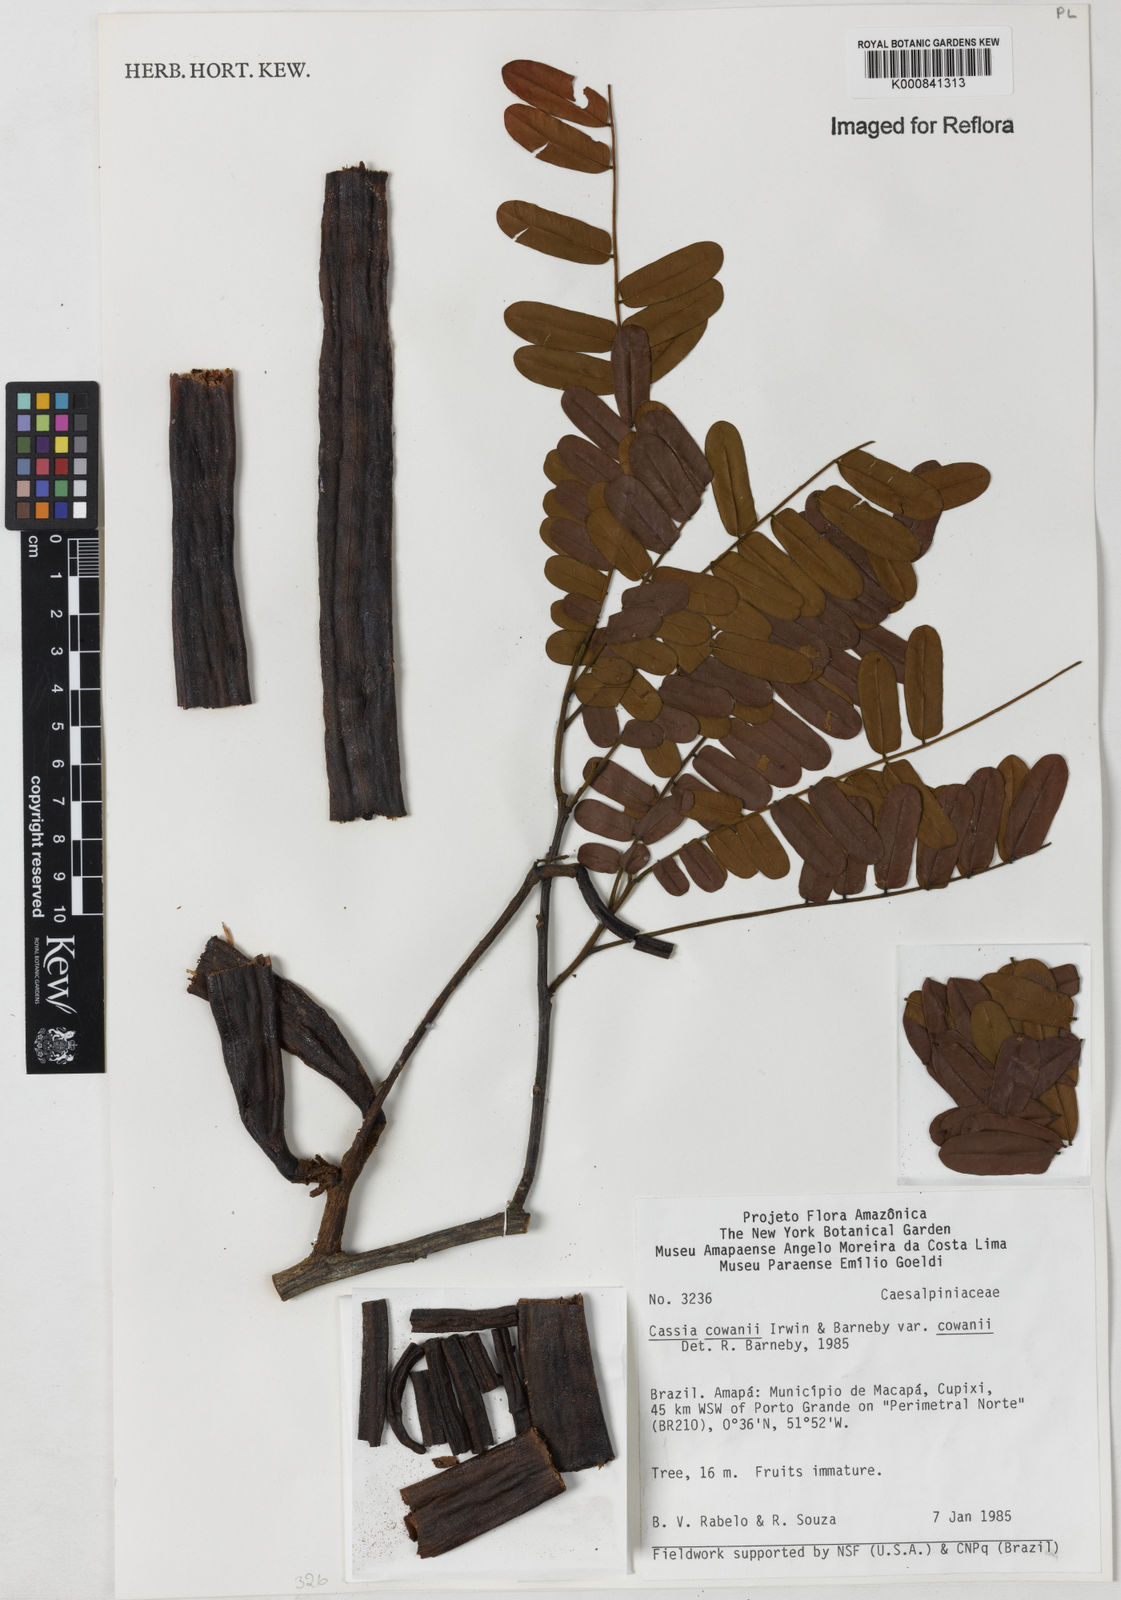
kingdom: Plantae
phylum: Tracheophyta
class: Magnoliopsida
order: Fabales
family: Fabaceae
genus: Cassia
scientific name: Cassia cowanii
